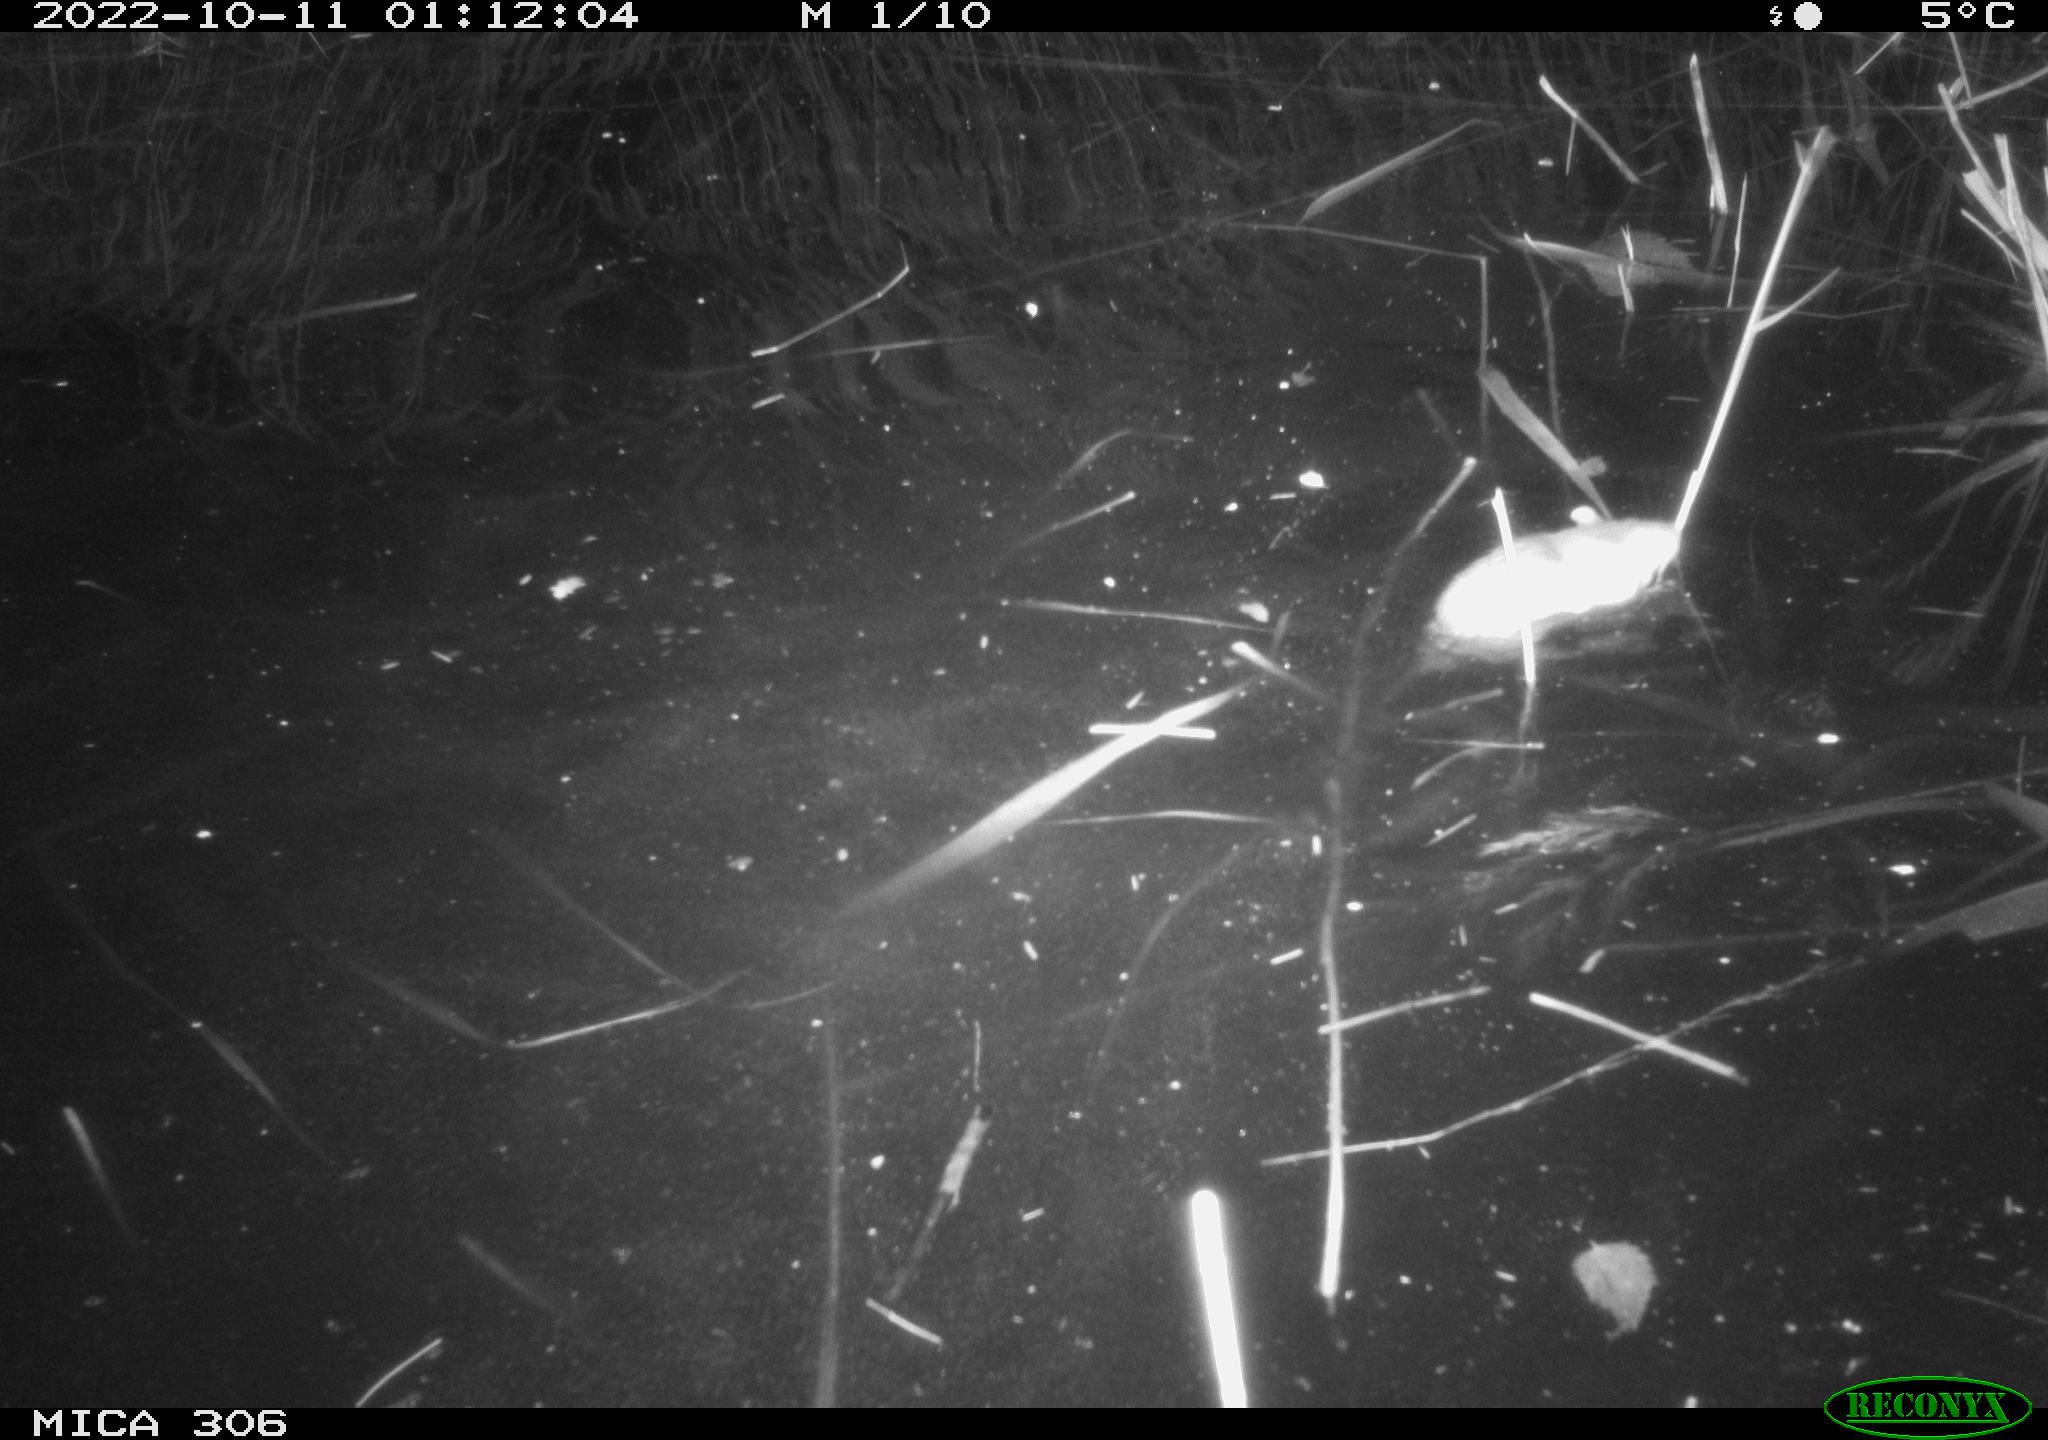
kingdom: Animalia
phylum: Chordata
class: Mammalia
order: Rodentia
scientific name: Rodentia
